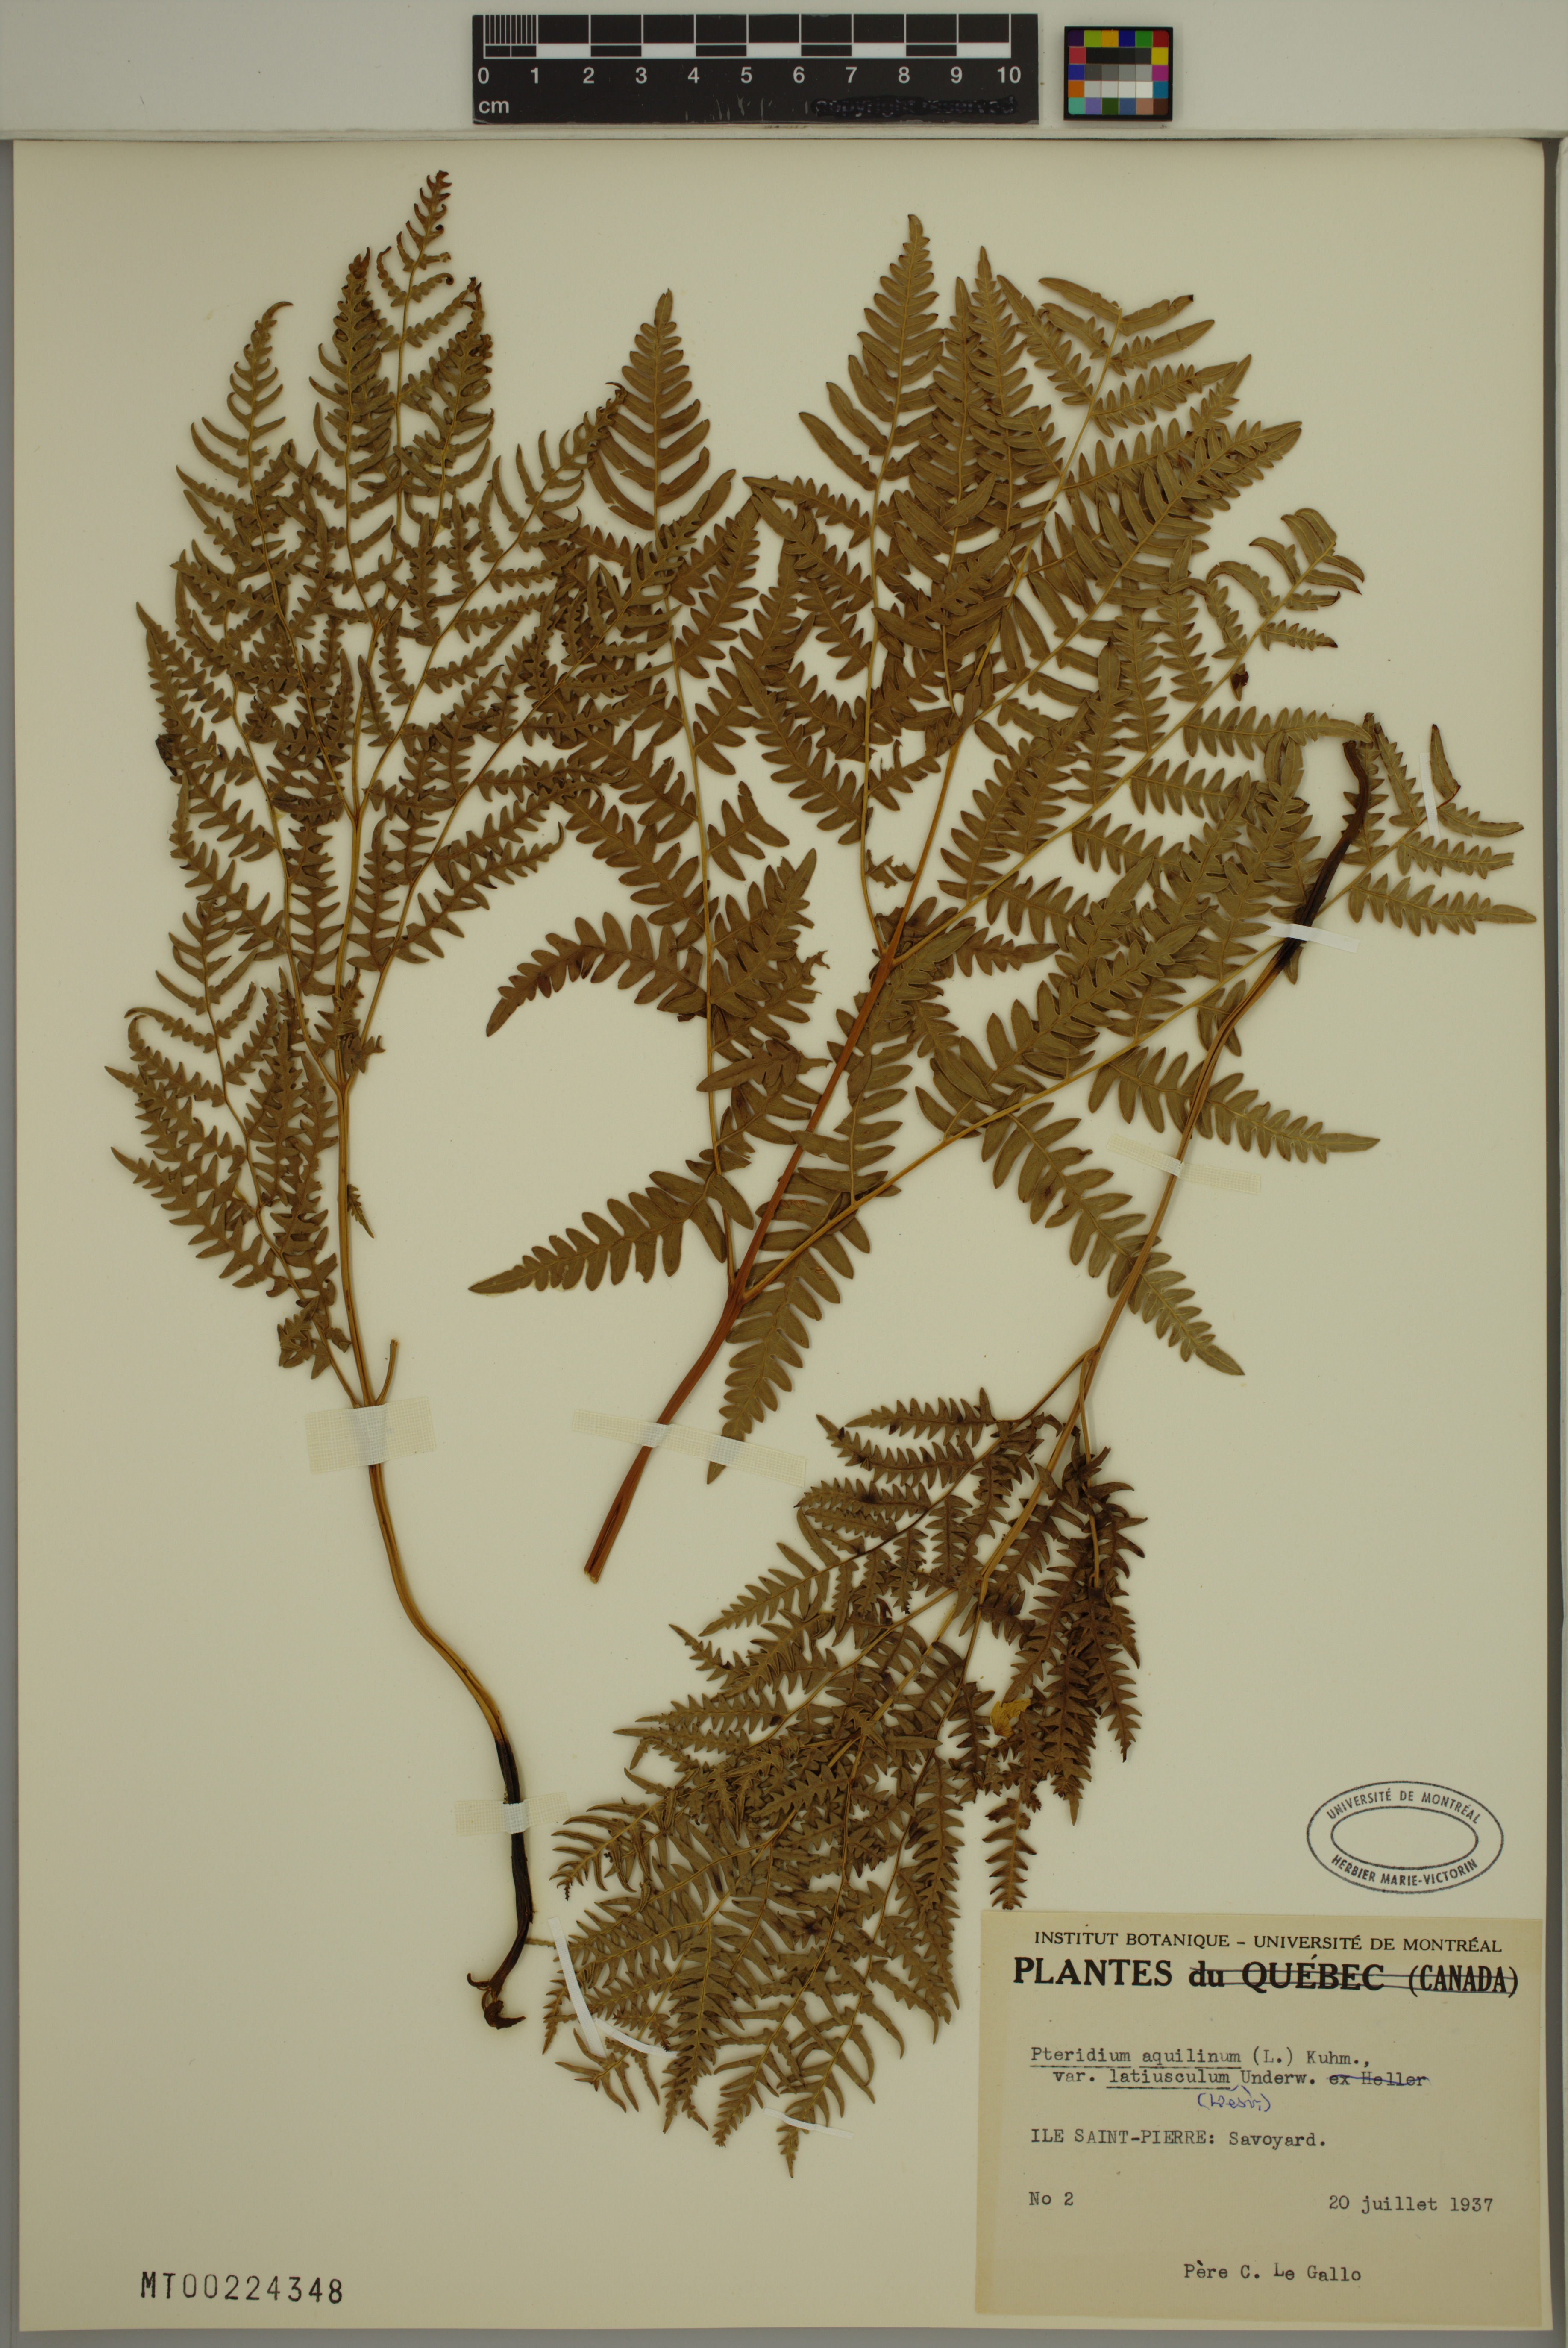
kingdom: Plantae
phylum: Tracheophyta
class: Polypodiopsida
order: Polypodiales
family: Dennstaedtiaceae
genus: Pteridium
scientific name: Pteridium aquilinum
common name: Bracken
